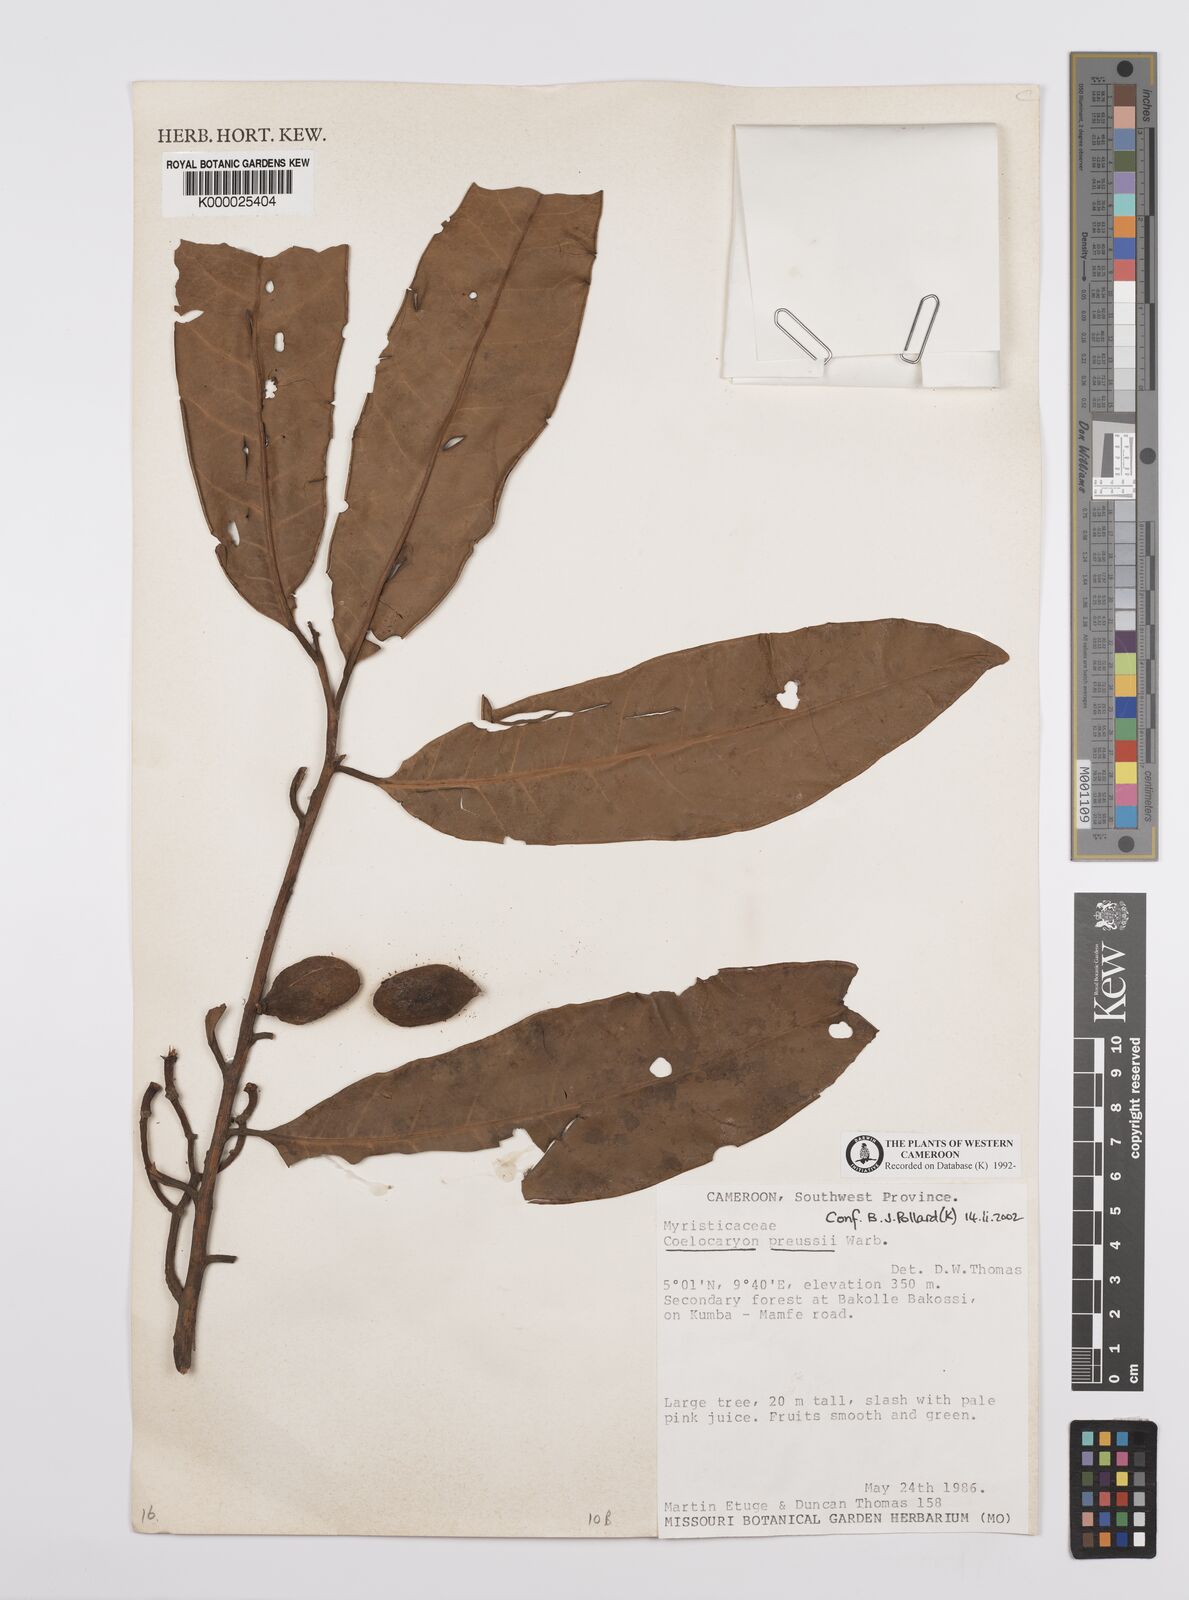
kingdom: Plantae
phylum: Tracheophyta
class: Magnoliopsida
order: Magnoliales
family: Myristicaceae
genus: Coelocaryon
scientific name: Coelocaryon preussii
